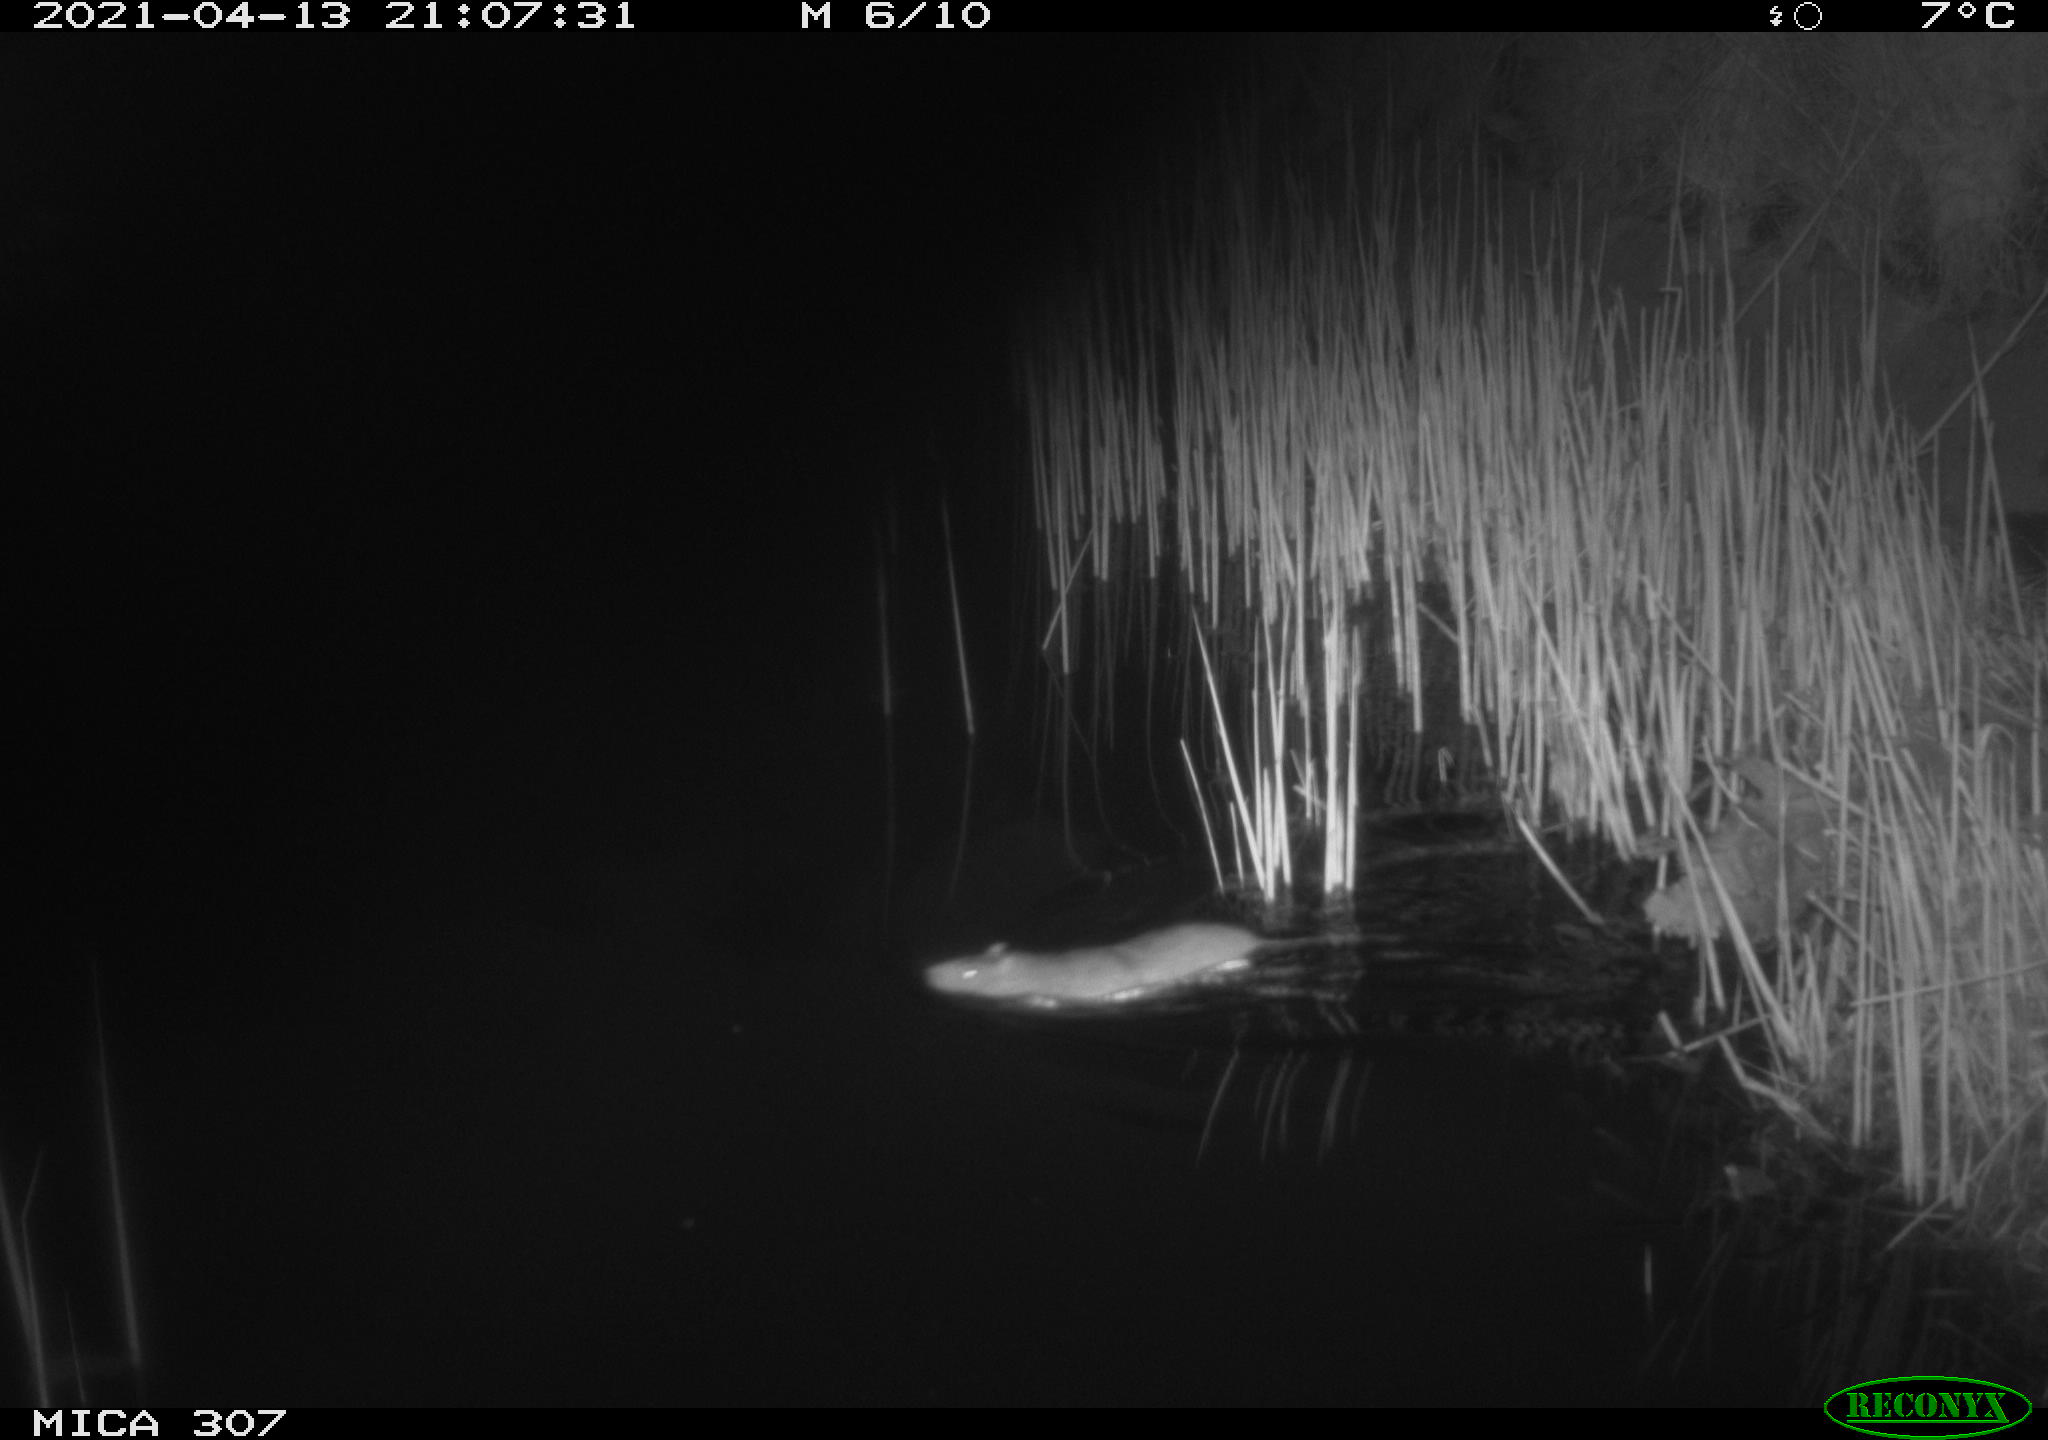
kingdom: Animalia
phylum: Chordata
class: Mammalia
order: Rodentia
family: Muridae
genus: Rattus
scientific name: Rattus norvegicus
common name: Brown rat
